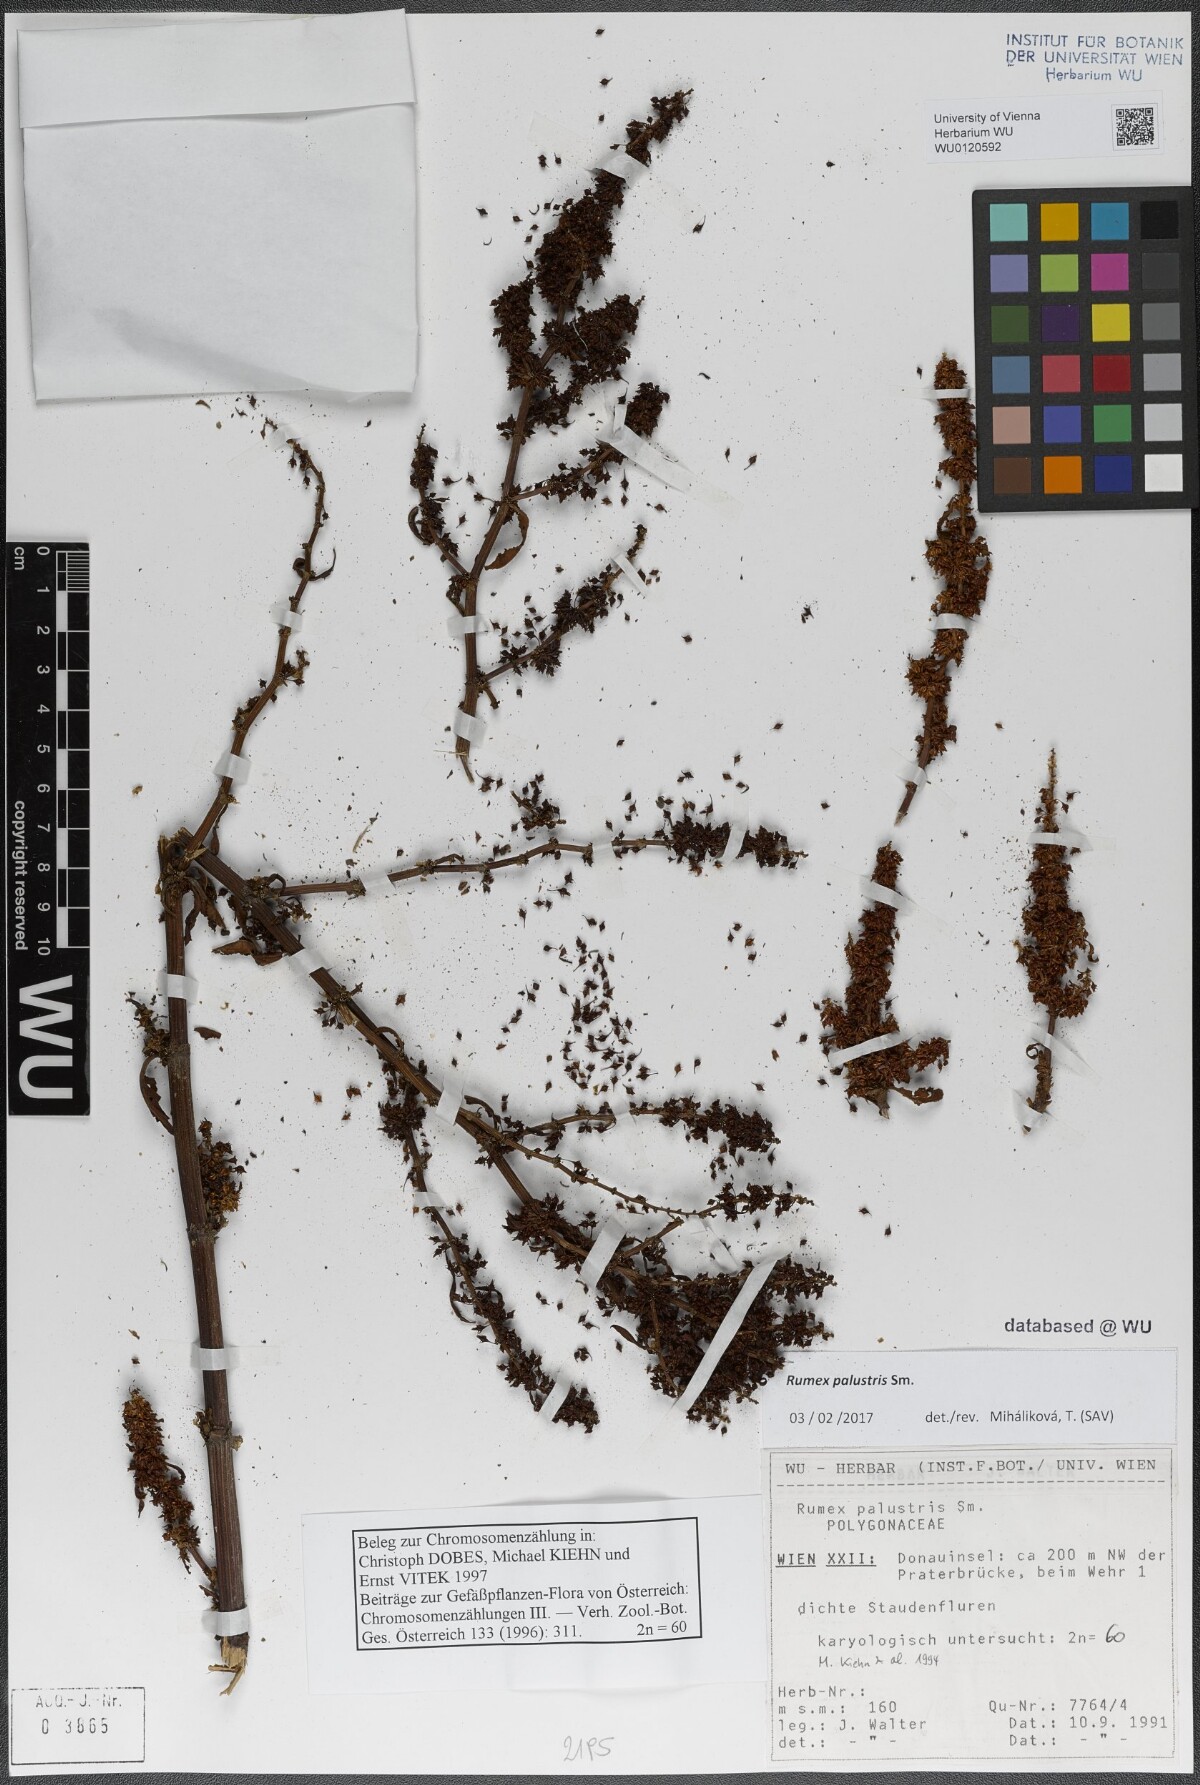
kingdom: Plantae
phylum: Tracheophyta
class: Magnoliopsida
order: Caryophyllales
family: Polygonaceae
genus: Rumex
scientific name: Rumex palustris
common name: Marsh dock
